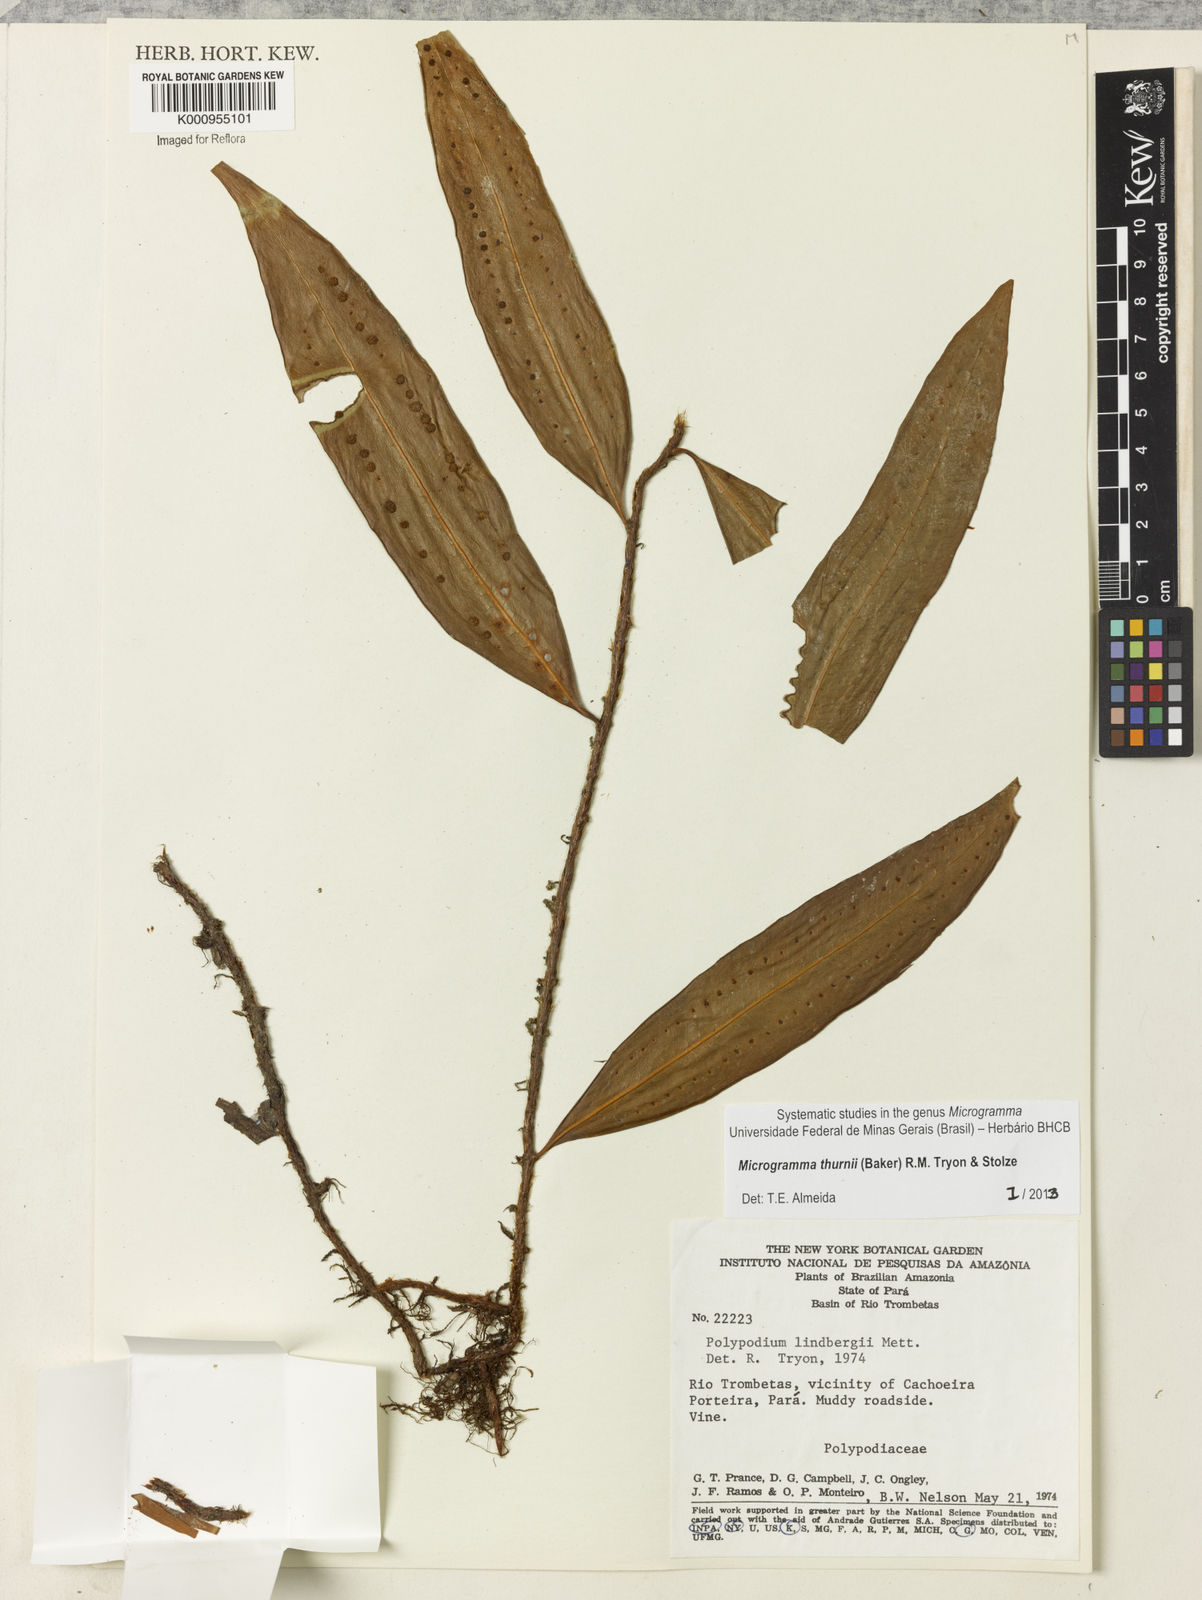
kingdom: Plantae
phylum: Tracheophyta
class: Polypodiopsida
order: Polypodiales
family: Polypodiaceae
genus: Microgramma
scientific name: Microgramma thurnii
